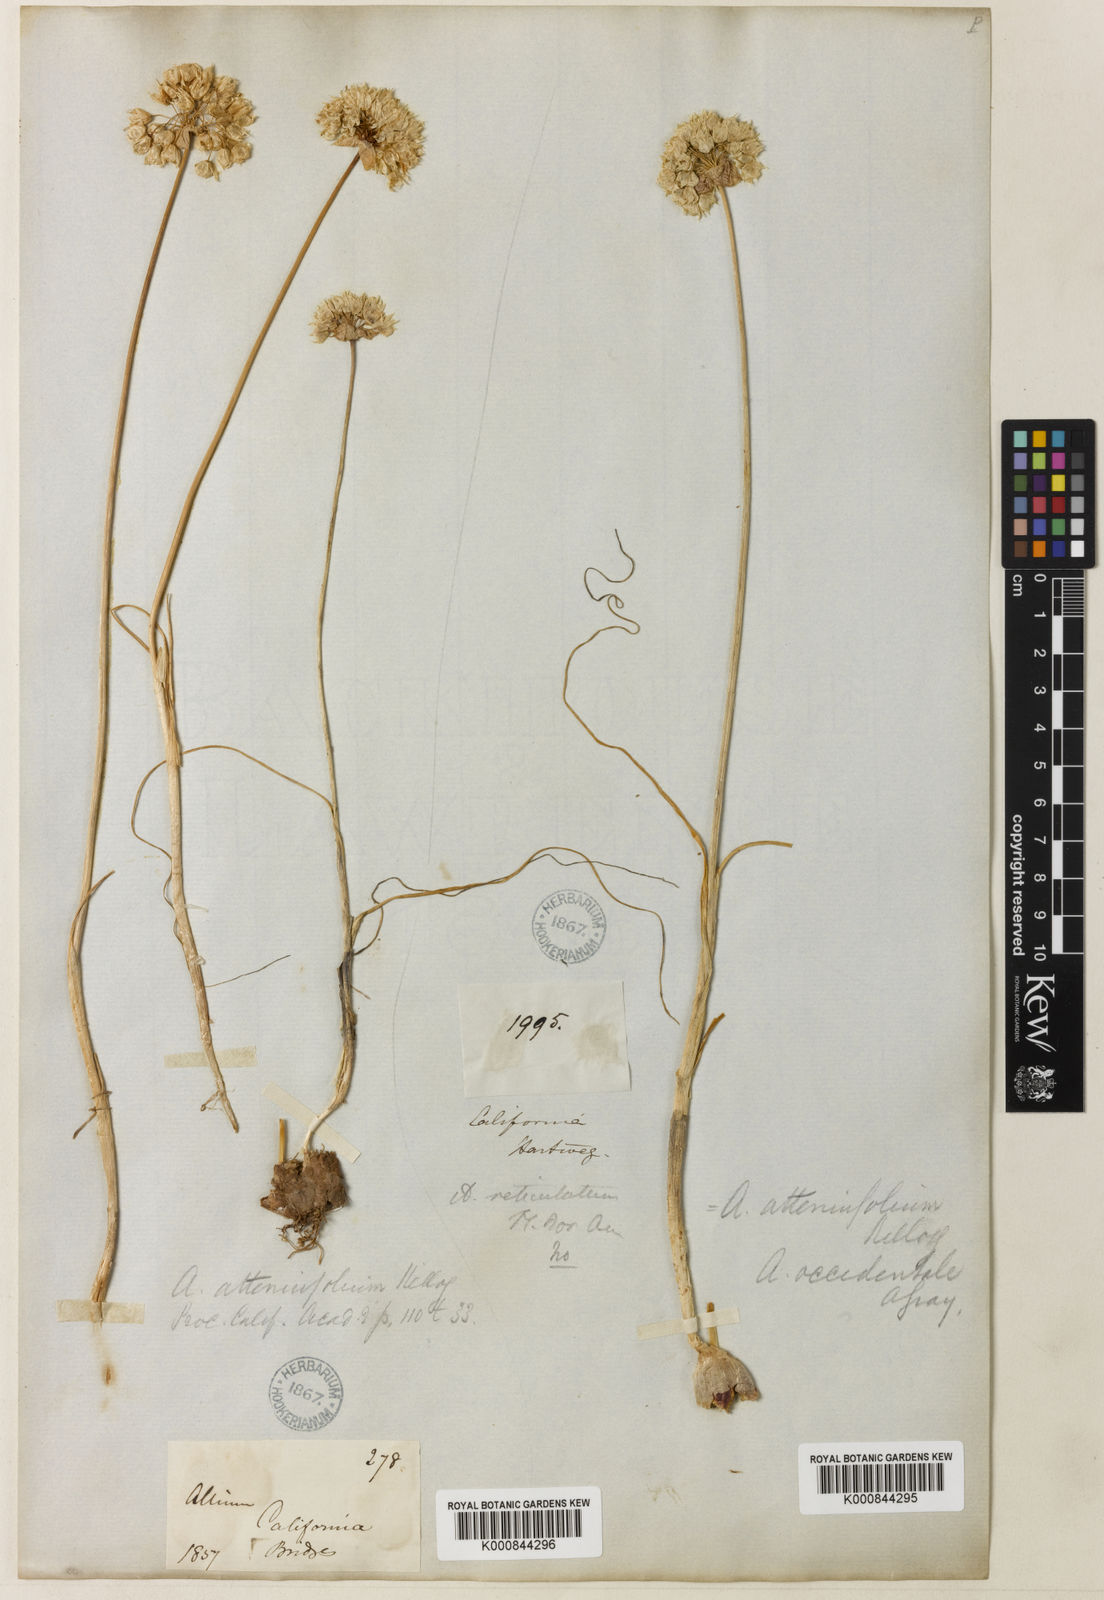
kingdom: Plantae
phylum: Tracheophyta
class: Liliopsida
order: Asparagales
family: Amaryllidaceae
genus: Allium
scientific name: Allium amplectens
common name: Narrow-leaved onion
